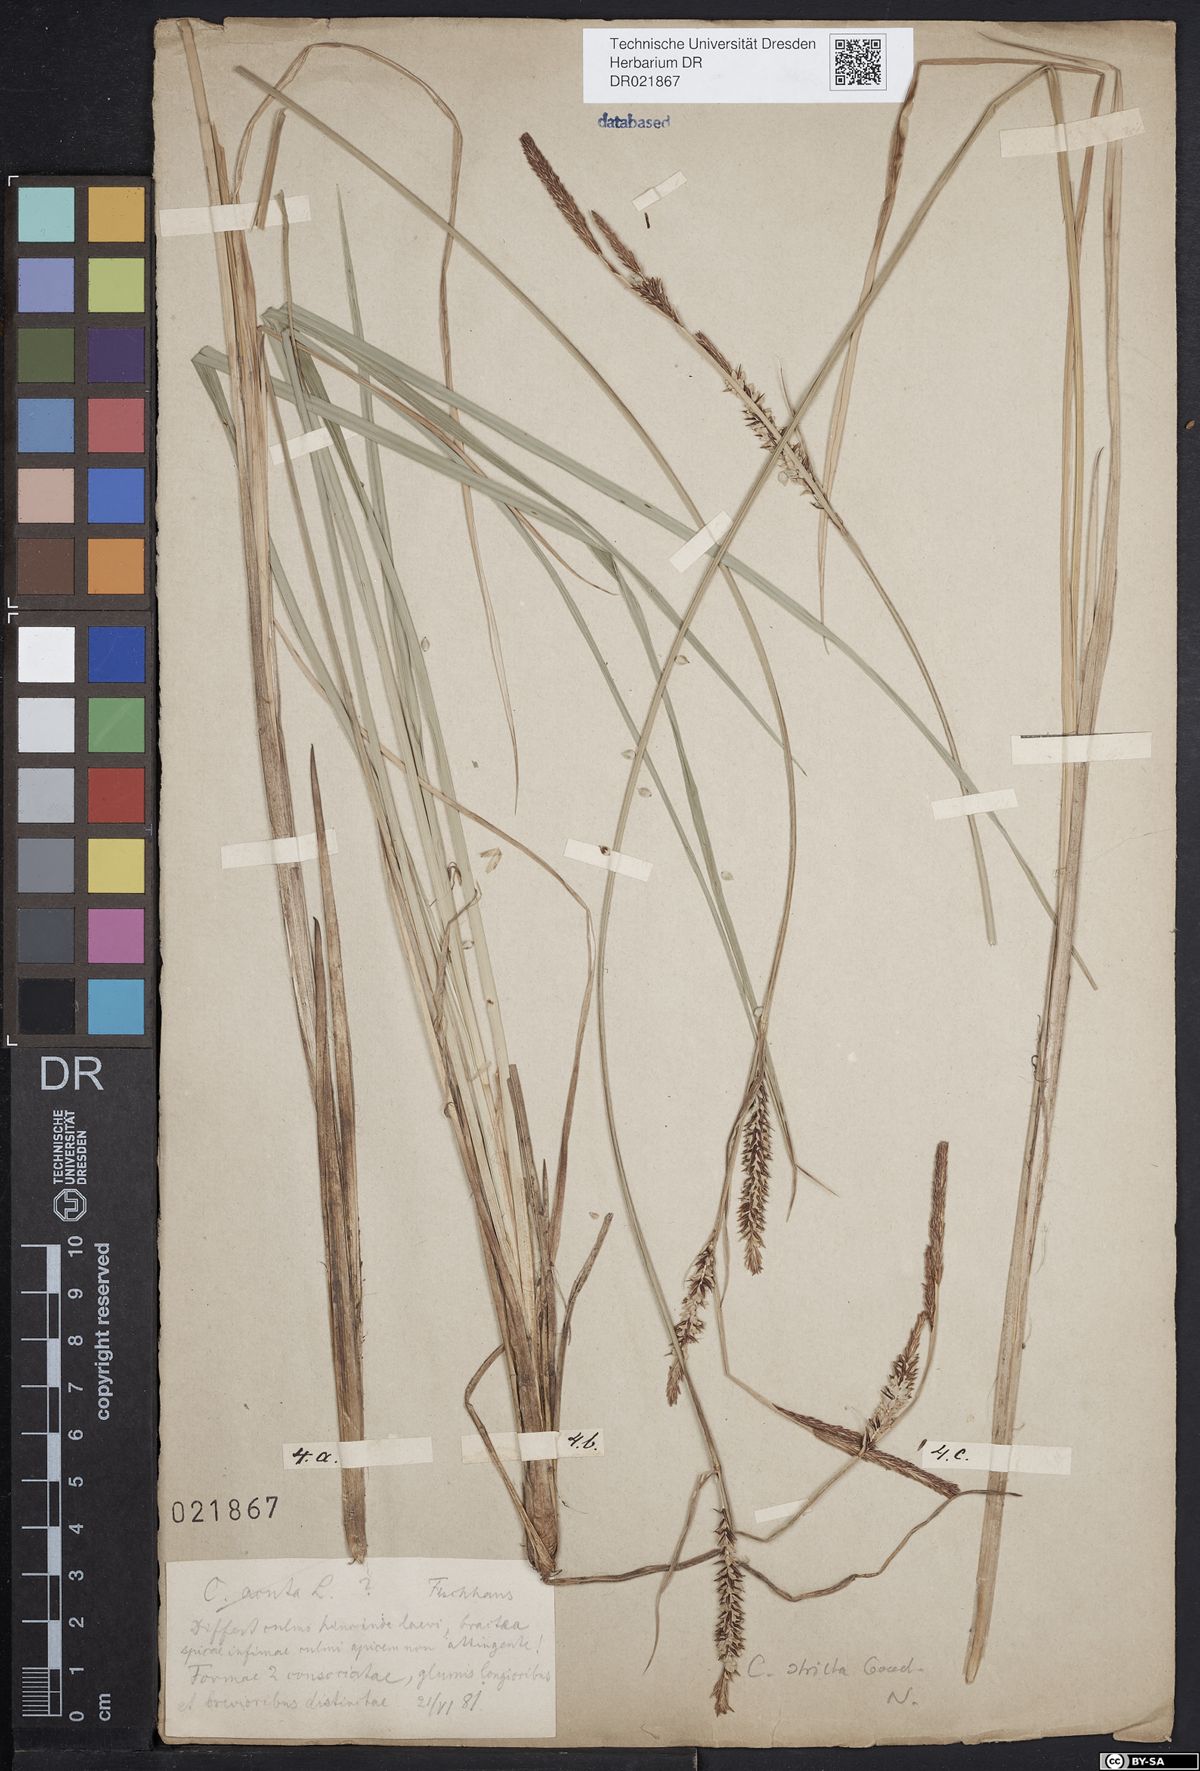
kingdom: Plantae
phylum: Tracheophyta
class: Liliopsida
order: Poales
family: Cyperaceae
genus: Carex
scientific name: Carex acuta
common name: Slender tufted-sedge
